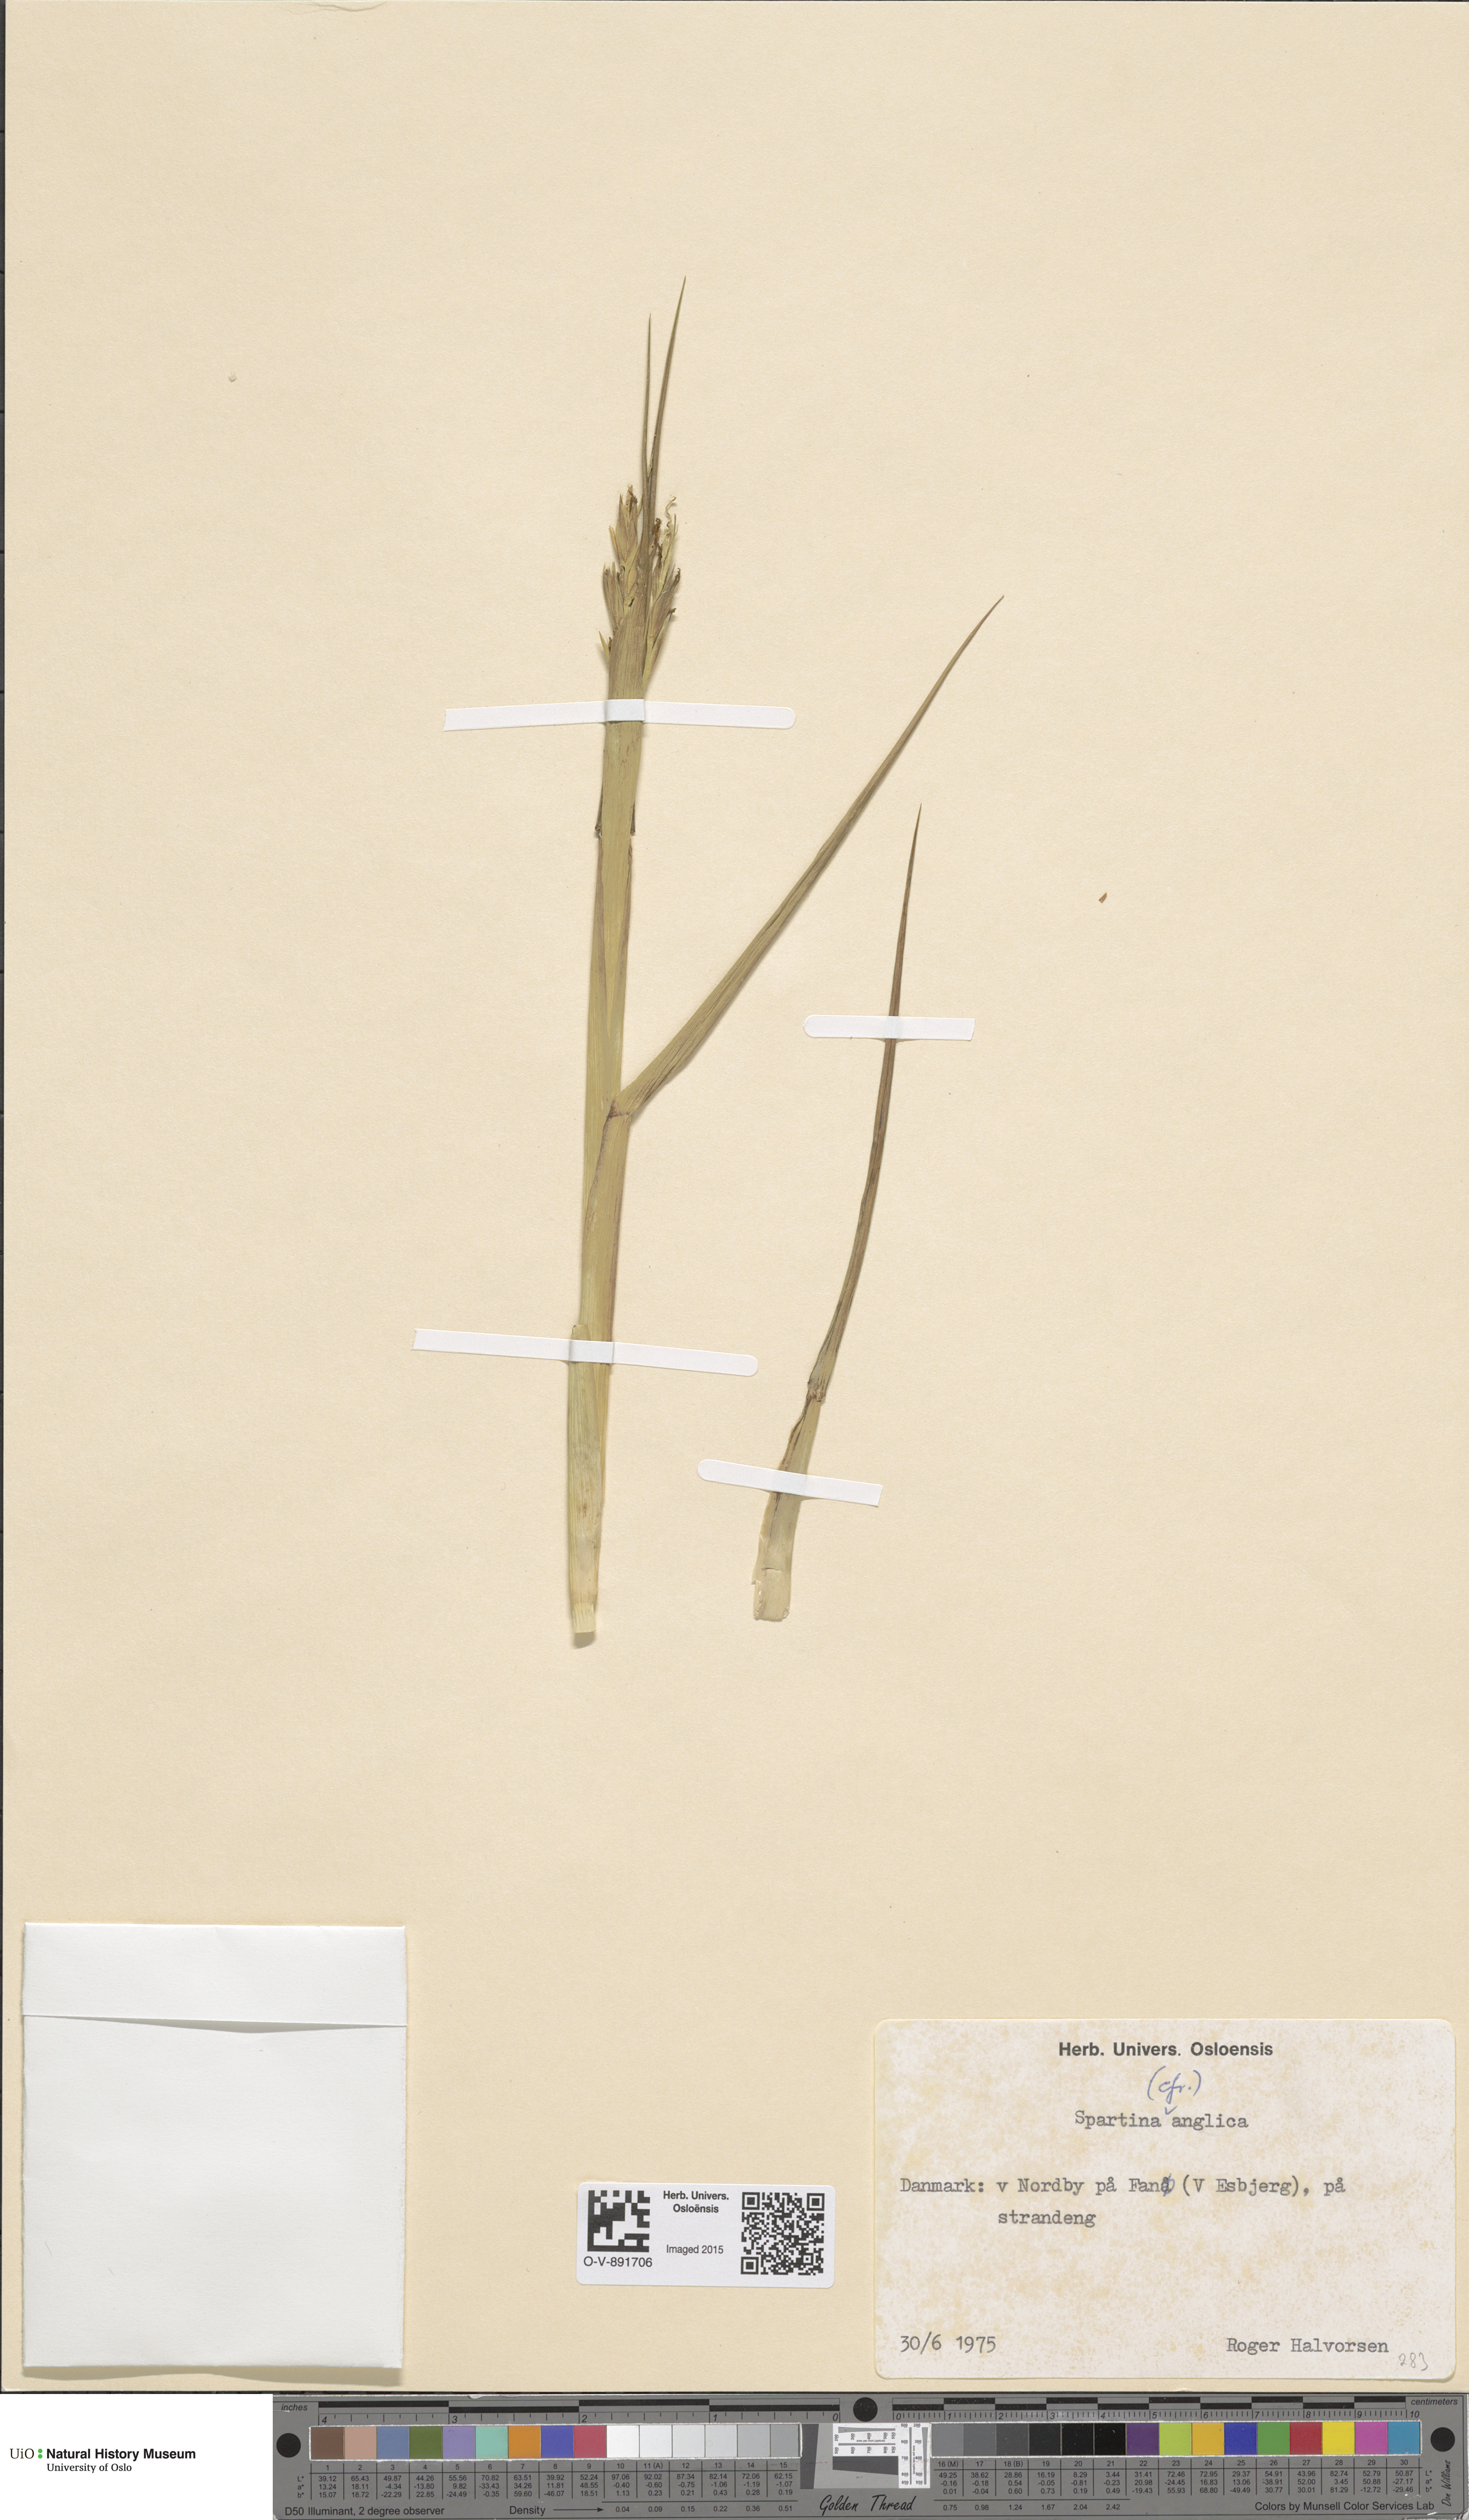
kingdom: Plantae
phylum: Tracheophyta
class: Liliopsida
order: Poales
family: Poaceae
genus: Sporobolus
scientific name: Sporobolus anglicus
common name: English cordgrass
